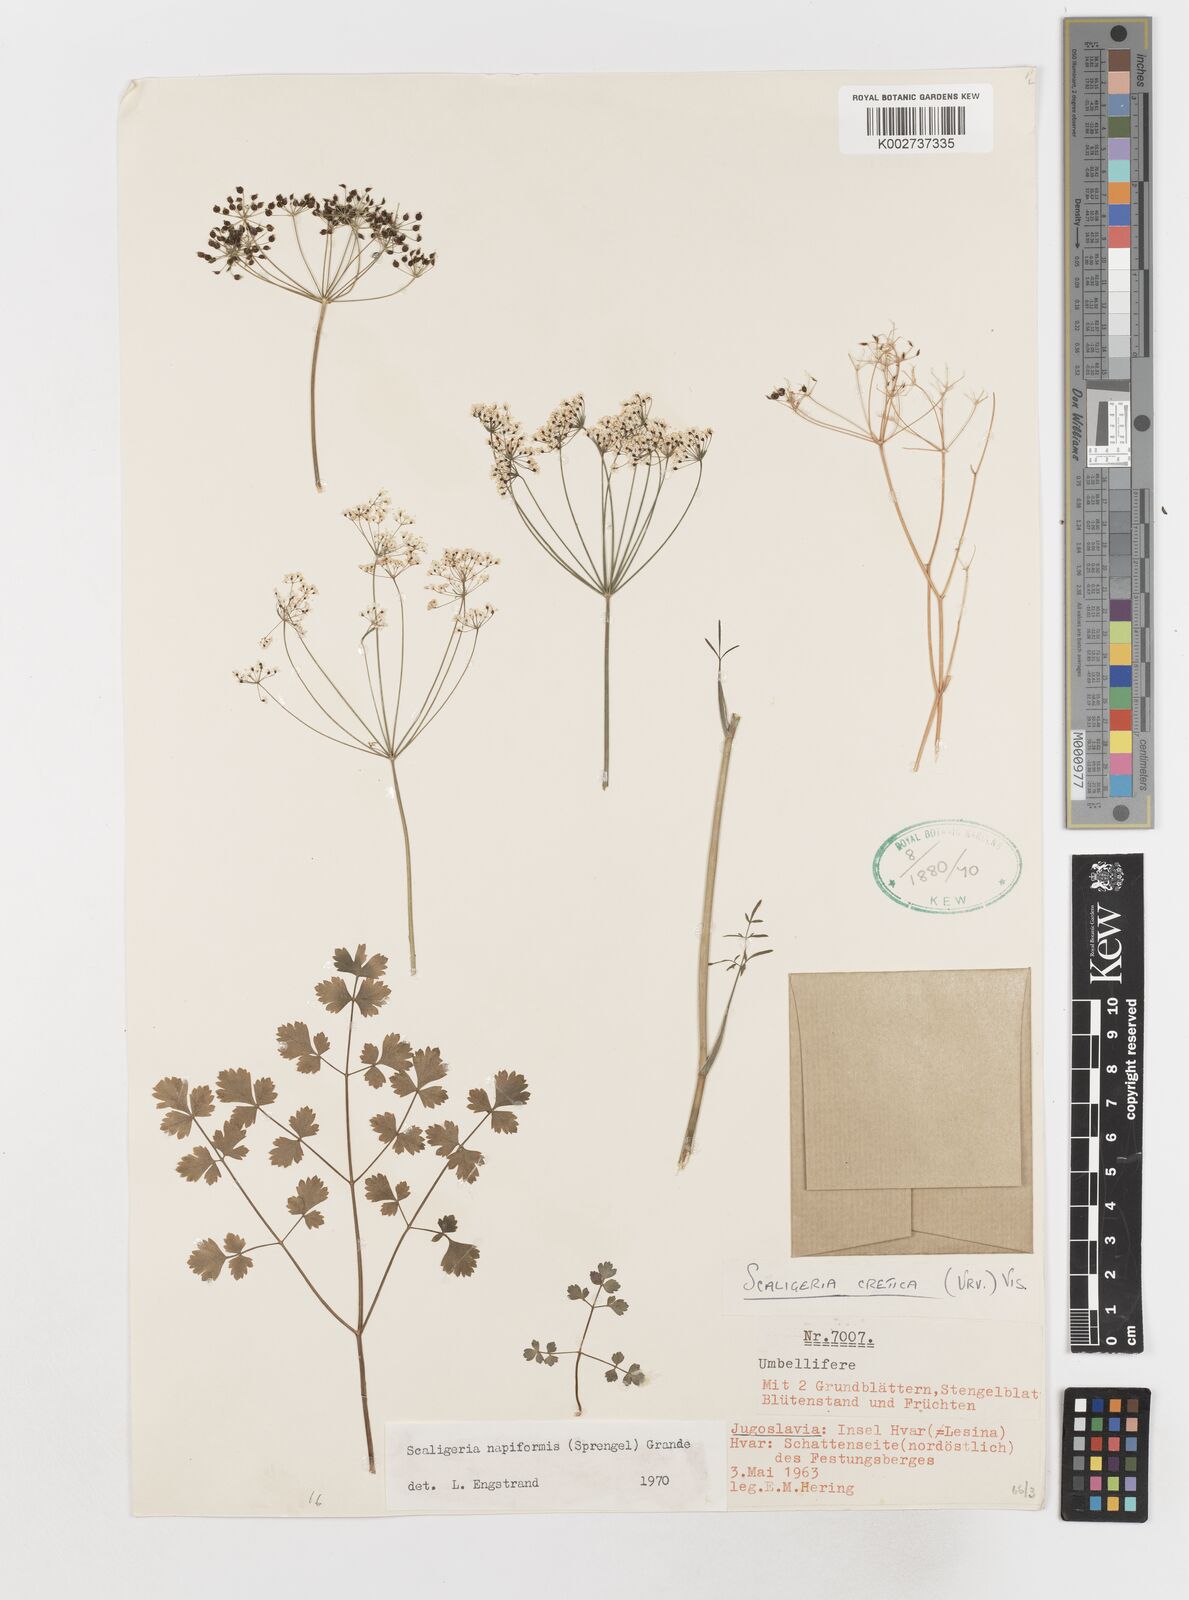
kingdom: Plantae
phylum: Tracheophyta
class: Magnoliopsida
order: Apiales
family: Apiaceae
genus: Scaligeria
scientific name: Scaligeria napiformis
